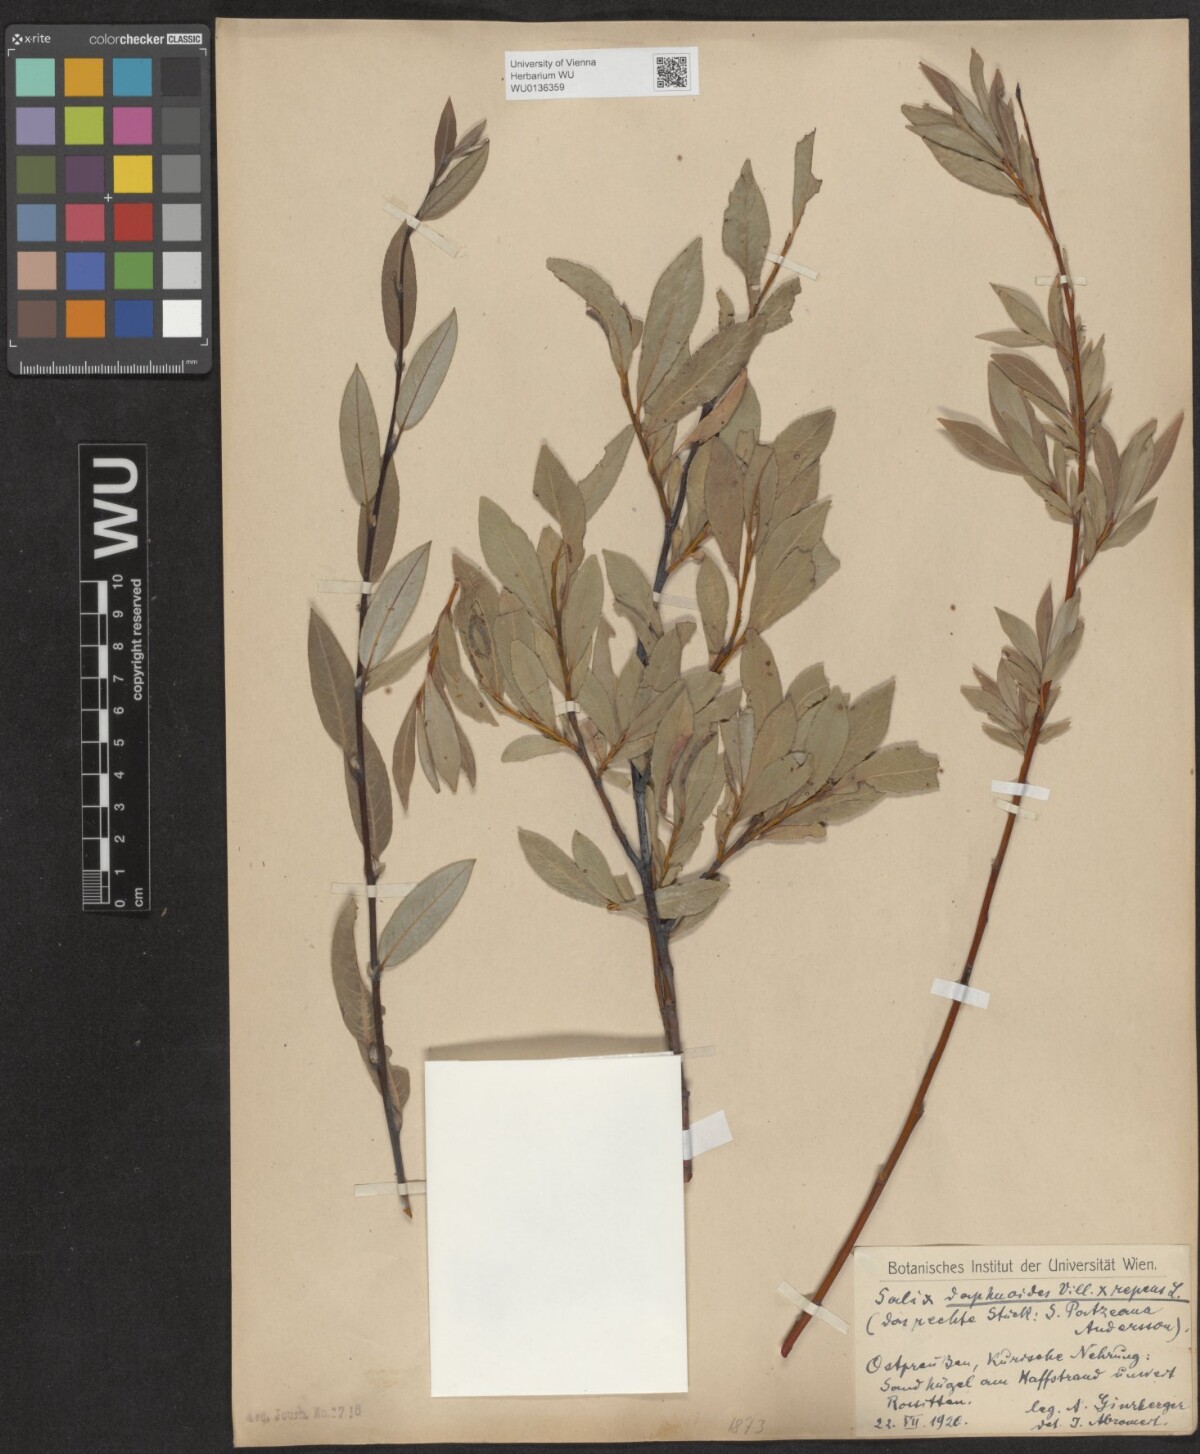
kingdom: Plantae
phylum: Tracheophyta
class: Magnoliopsida
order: Malpighiales
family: Salicaceae
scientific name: Salicaceae
